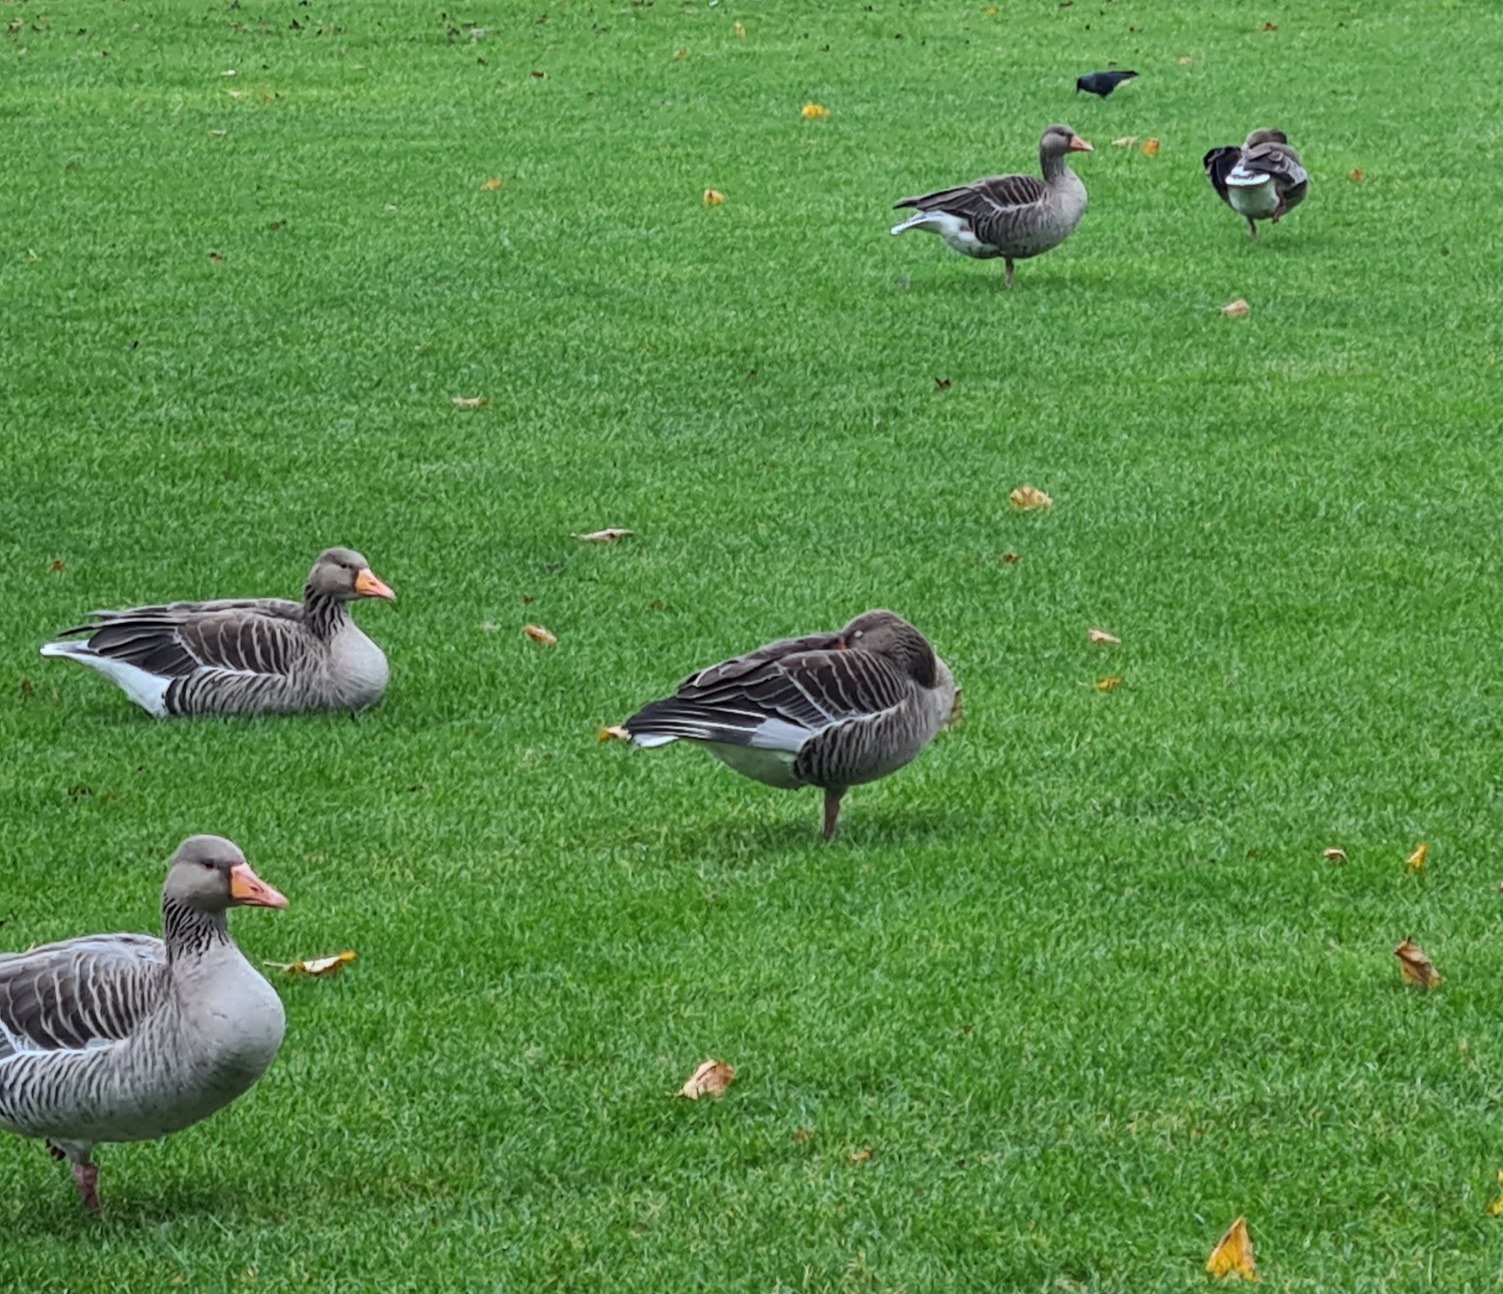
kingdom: Animalia
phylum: Chordata
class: Aves
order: Anseriformes
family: Anatidae
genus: Anser
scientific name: Anser anser
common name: Grågås
